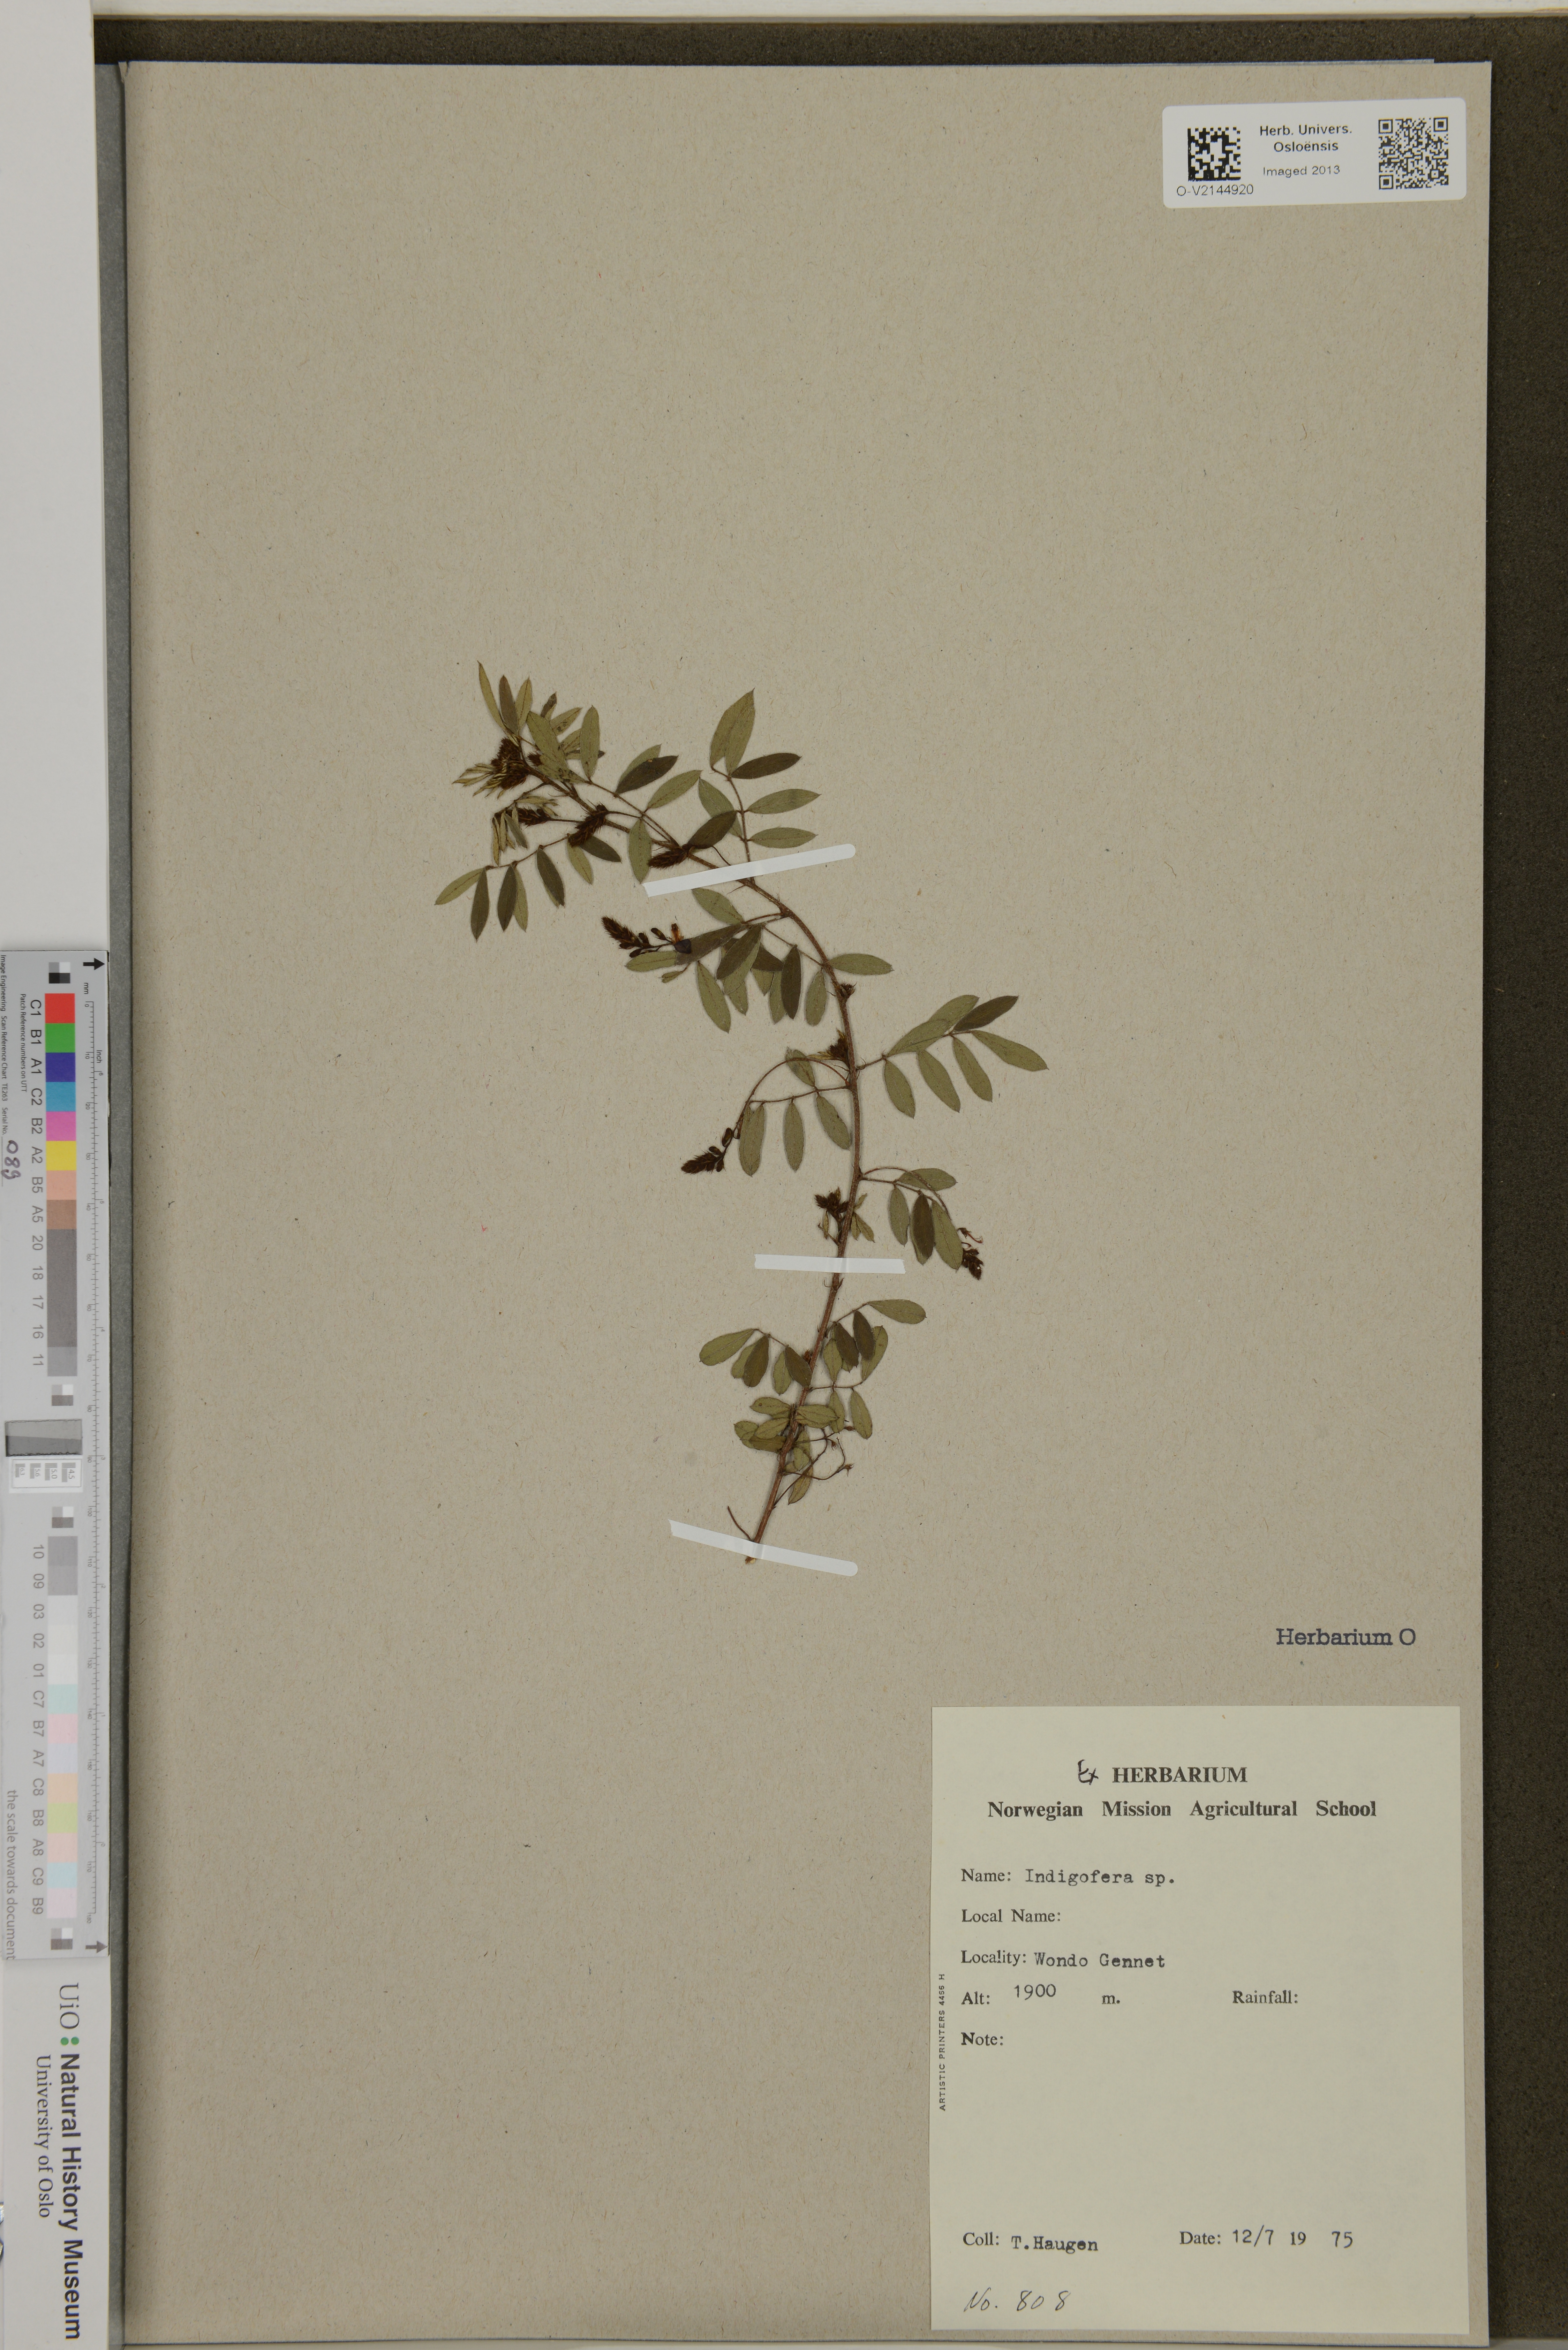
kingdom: Plantae
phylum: Tracheophyta
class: Magnoliopsida
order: Fabales
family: Fabaceae
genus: Indigofera
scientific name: Indigofera
